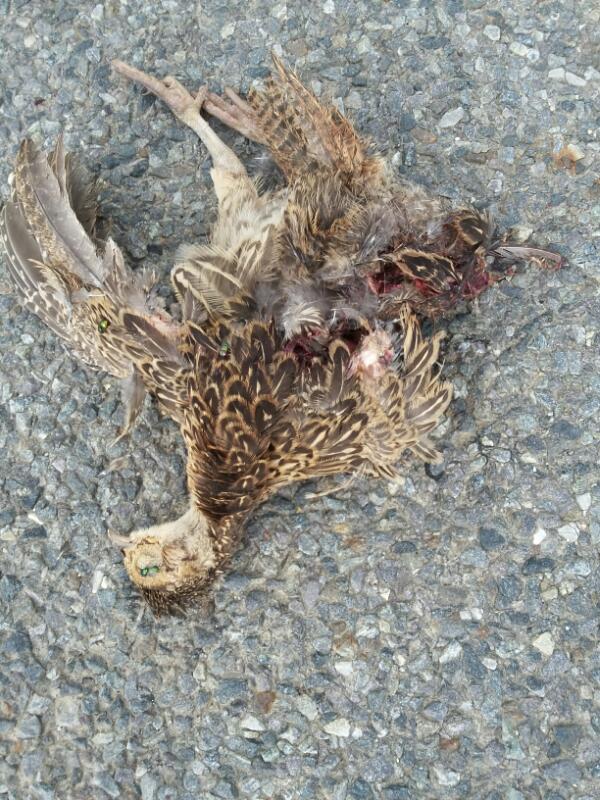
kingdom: Animalia
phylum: Chordata
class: Aves
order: Galliformes
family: Phasianidae
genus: Phasianus
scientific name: Phasianus colchicus
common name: Common pheasant
